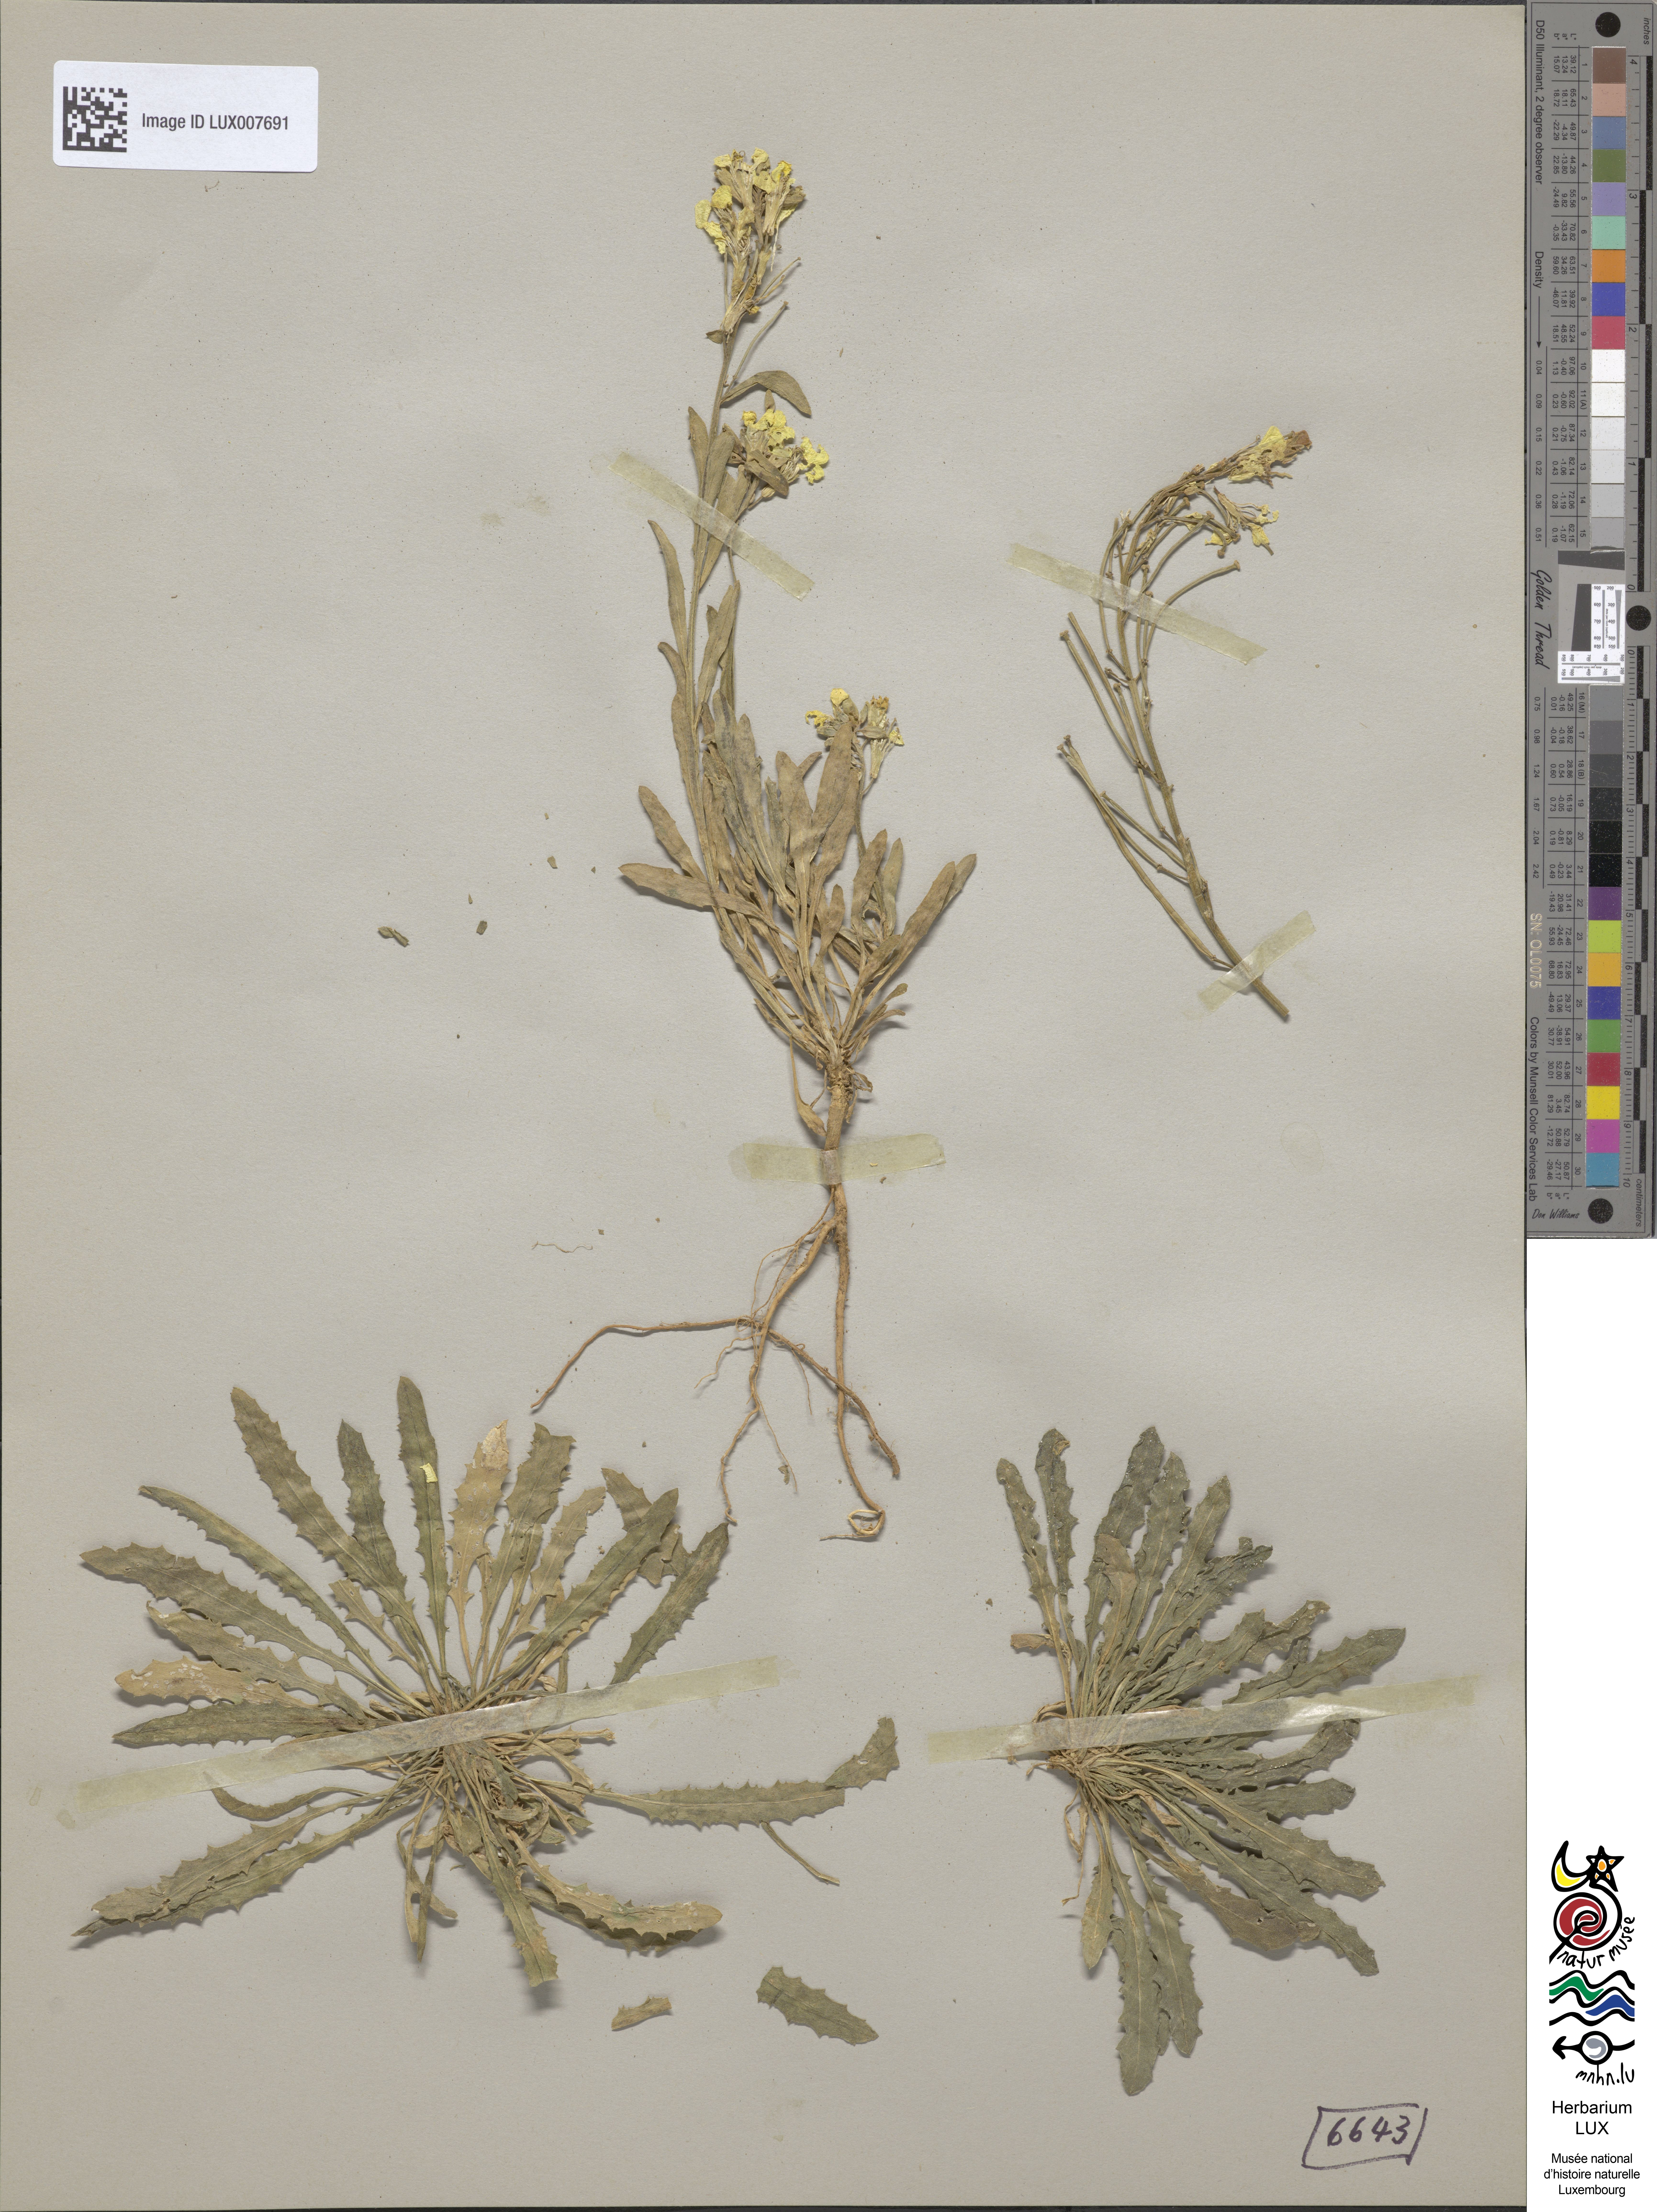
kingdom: Plantae
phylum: Tracheophyta
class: Magnoliopsida
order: Brassicales
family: Brassicaceae
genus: Erysimum
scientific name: Erysimum odoratum
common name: Smelly wallflower
